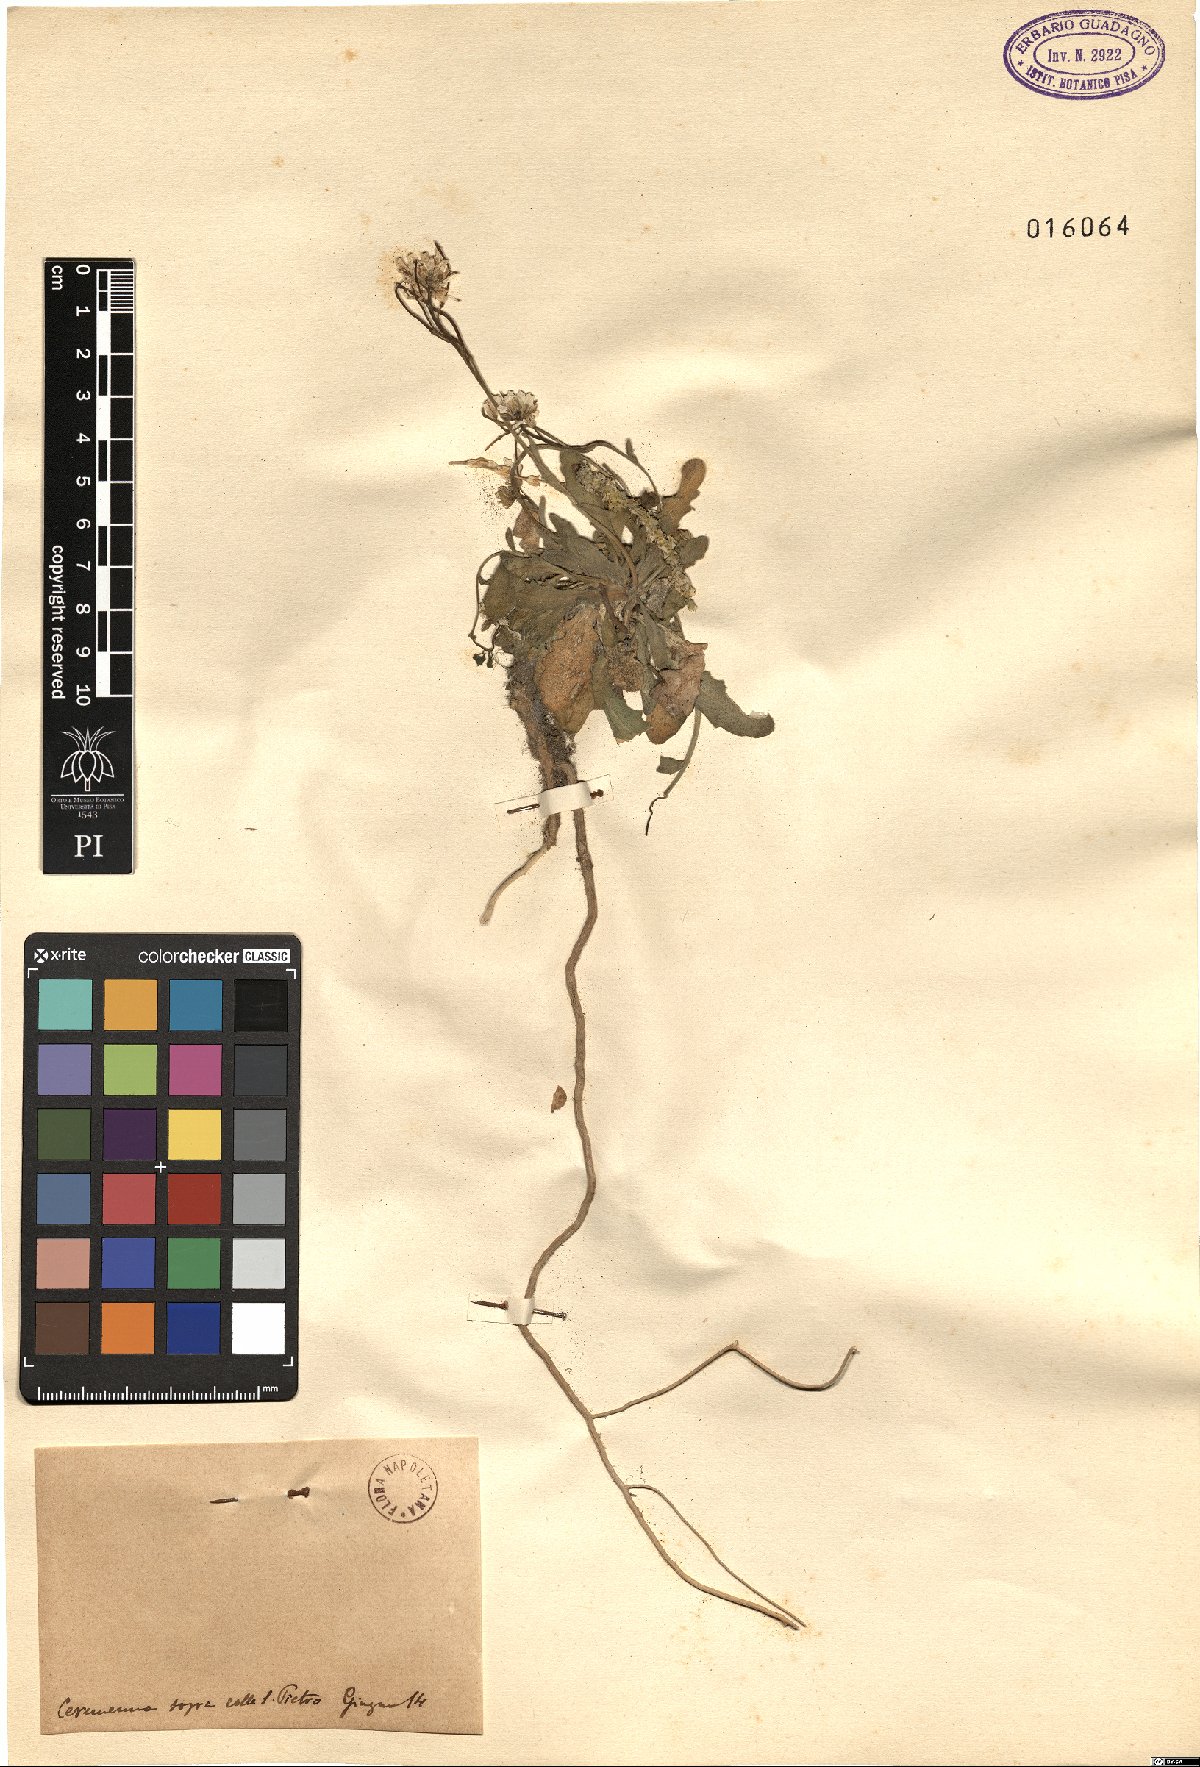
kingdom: Plantae
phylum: Tracheophyta
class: Magnoliopsida
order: Brassicales
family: Brassicaceae
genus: Arabis
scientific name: Arabis
